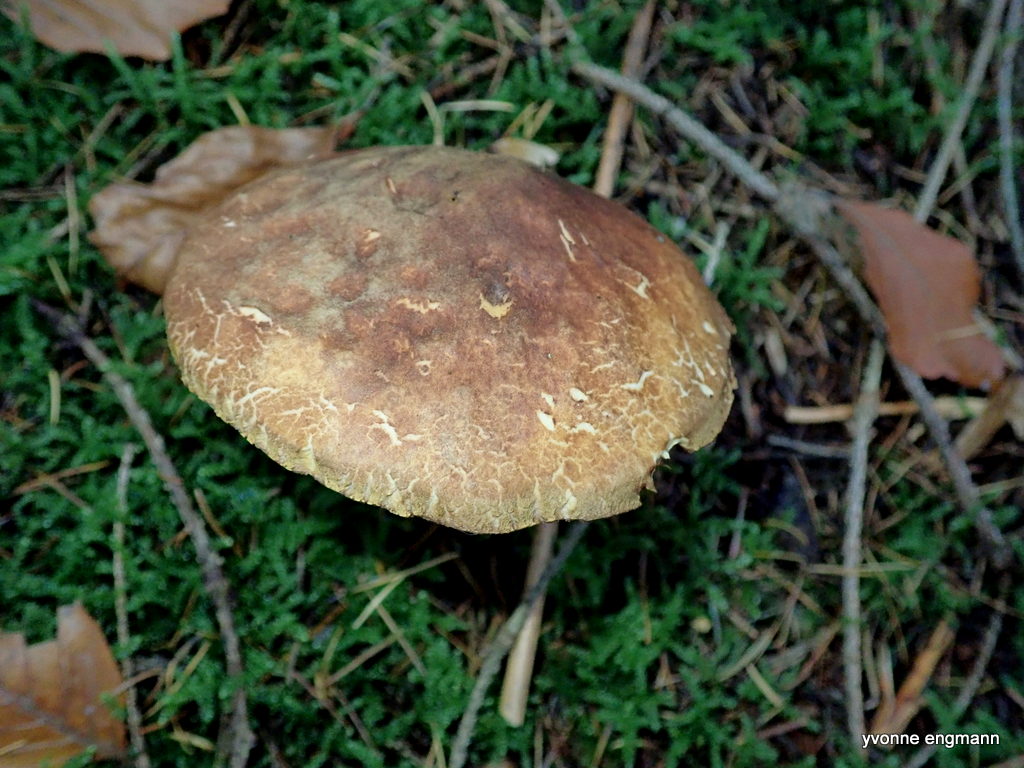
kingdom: Fungi
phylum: Basidiomycota
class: Agaricomycetes
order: Boletales
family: Boletaceae
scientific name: Boletaceae
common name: rørhatfamilien
